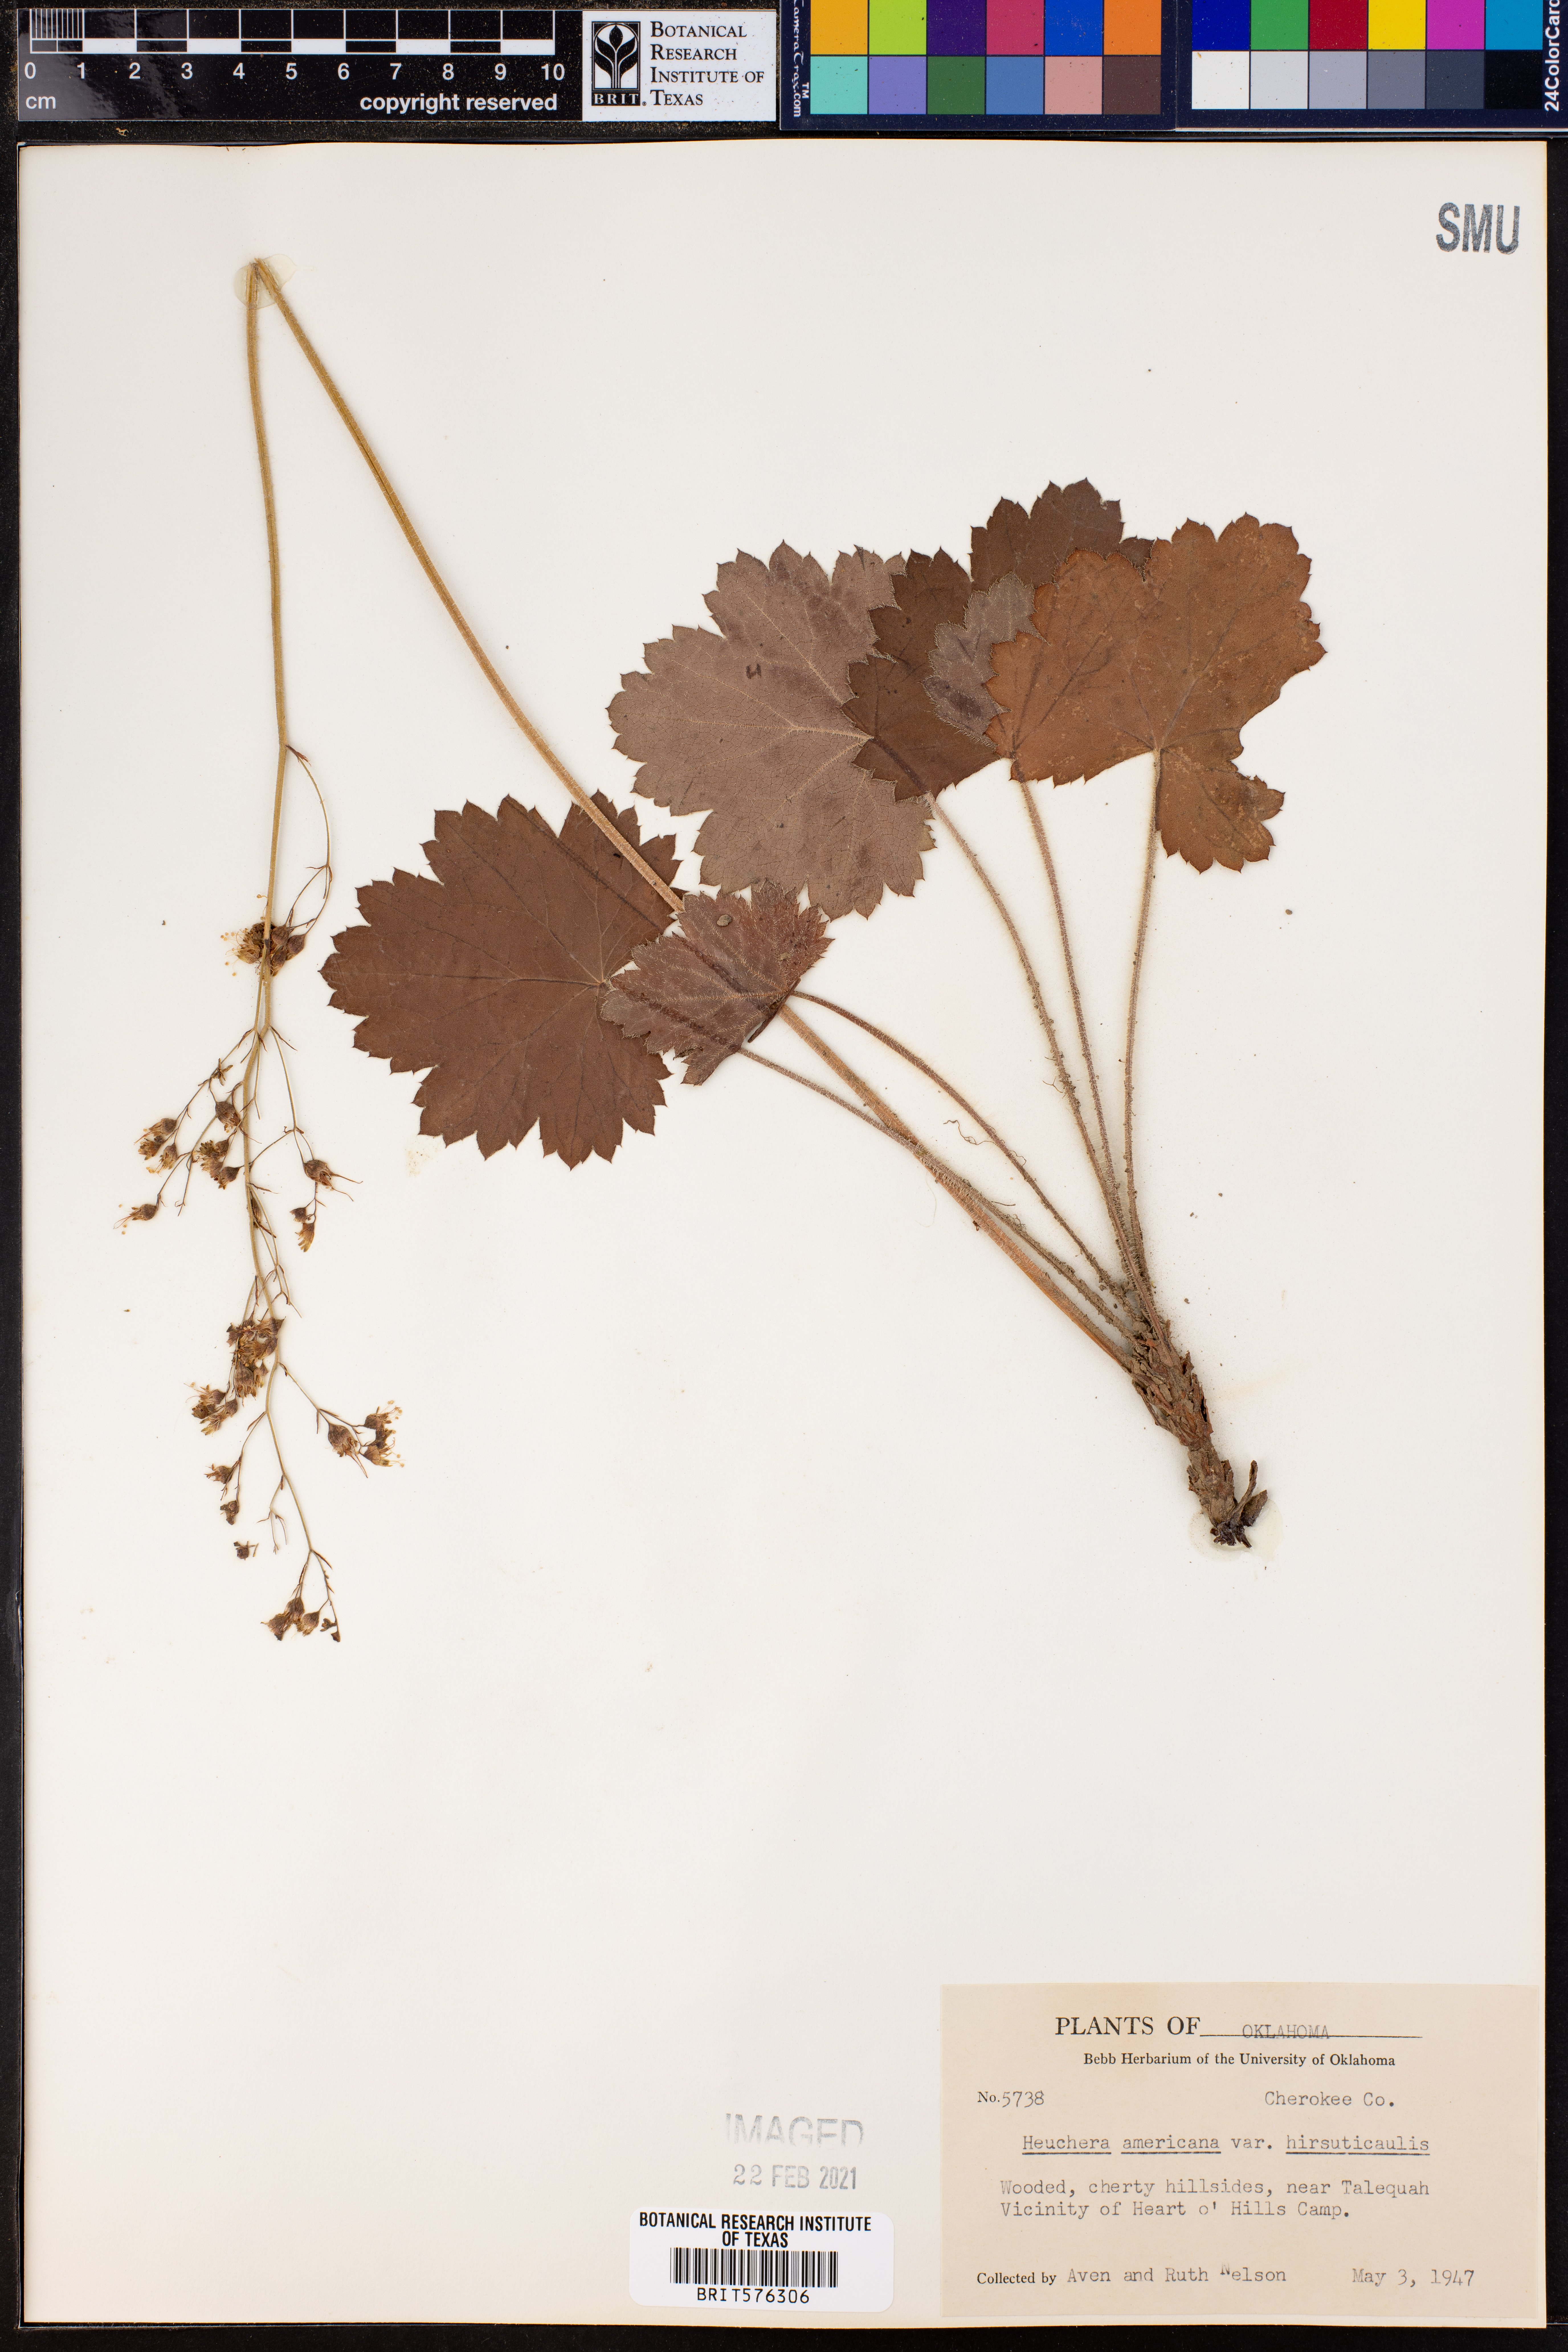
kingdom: Plantae
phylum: Tracheophyta
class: Magnoliopsida
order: Saxifragales
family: Saxifragaceae
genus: Heuchera
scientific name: Heuchera americana
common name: Alumroot
